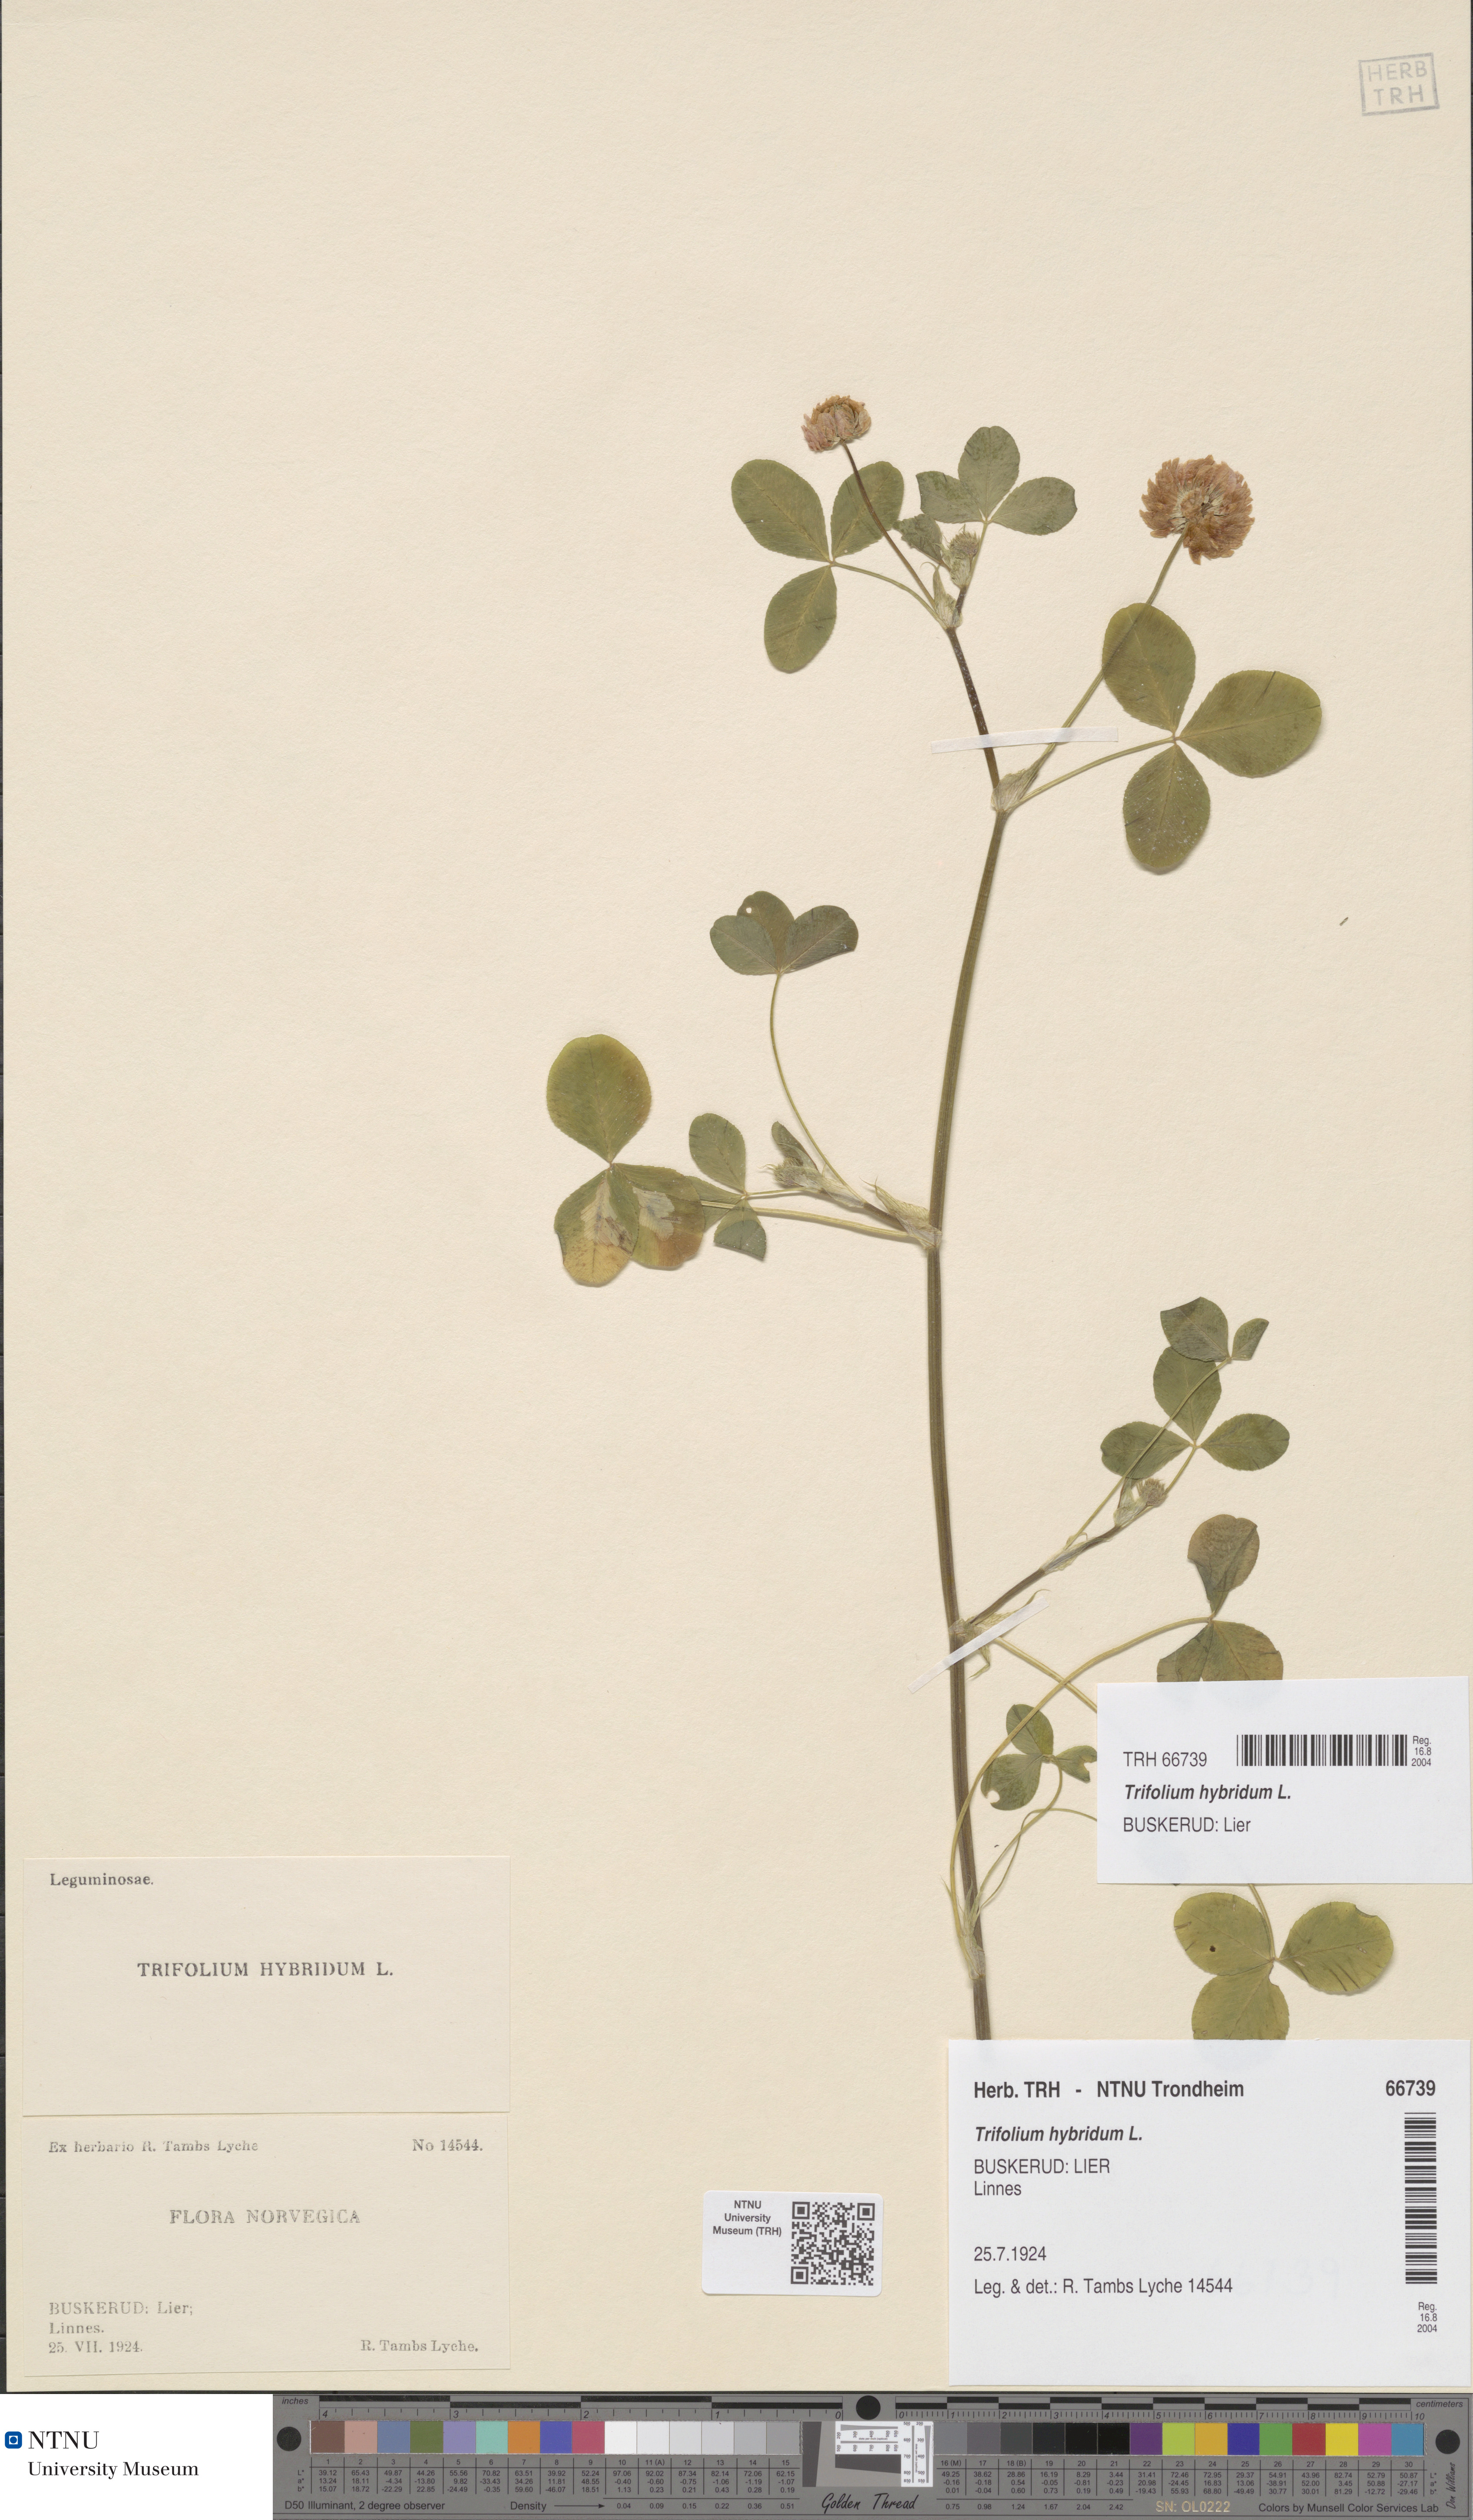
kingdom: Plantae
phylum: Tracheophyta
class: Magnoliopsida
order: Fabales
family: Fabaceae
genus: Trifolium
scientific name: Trifolium hybridum
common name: Alsike clover
